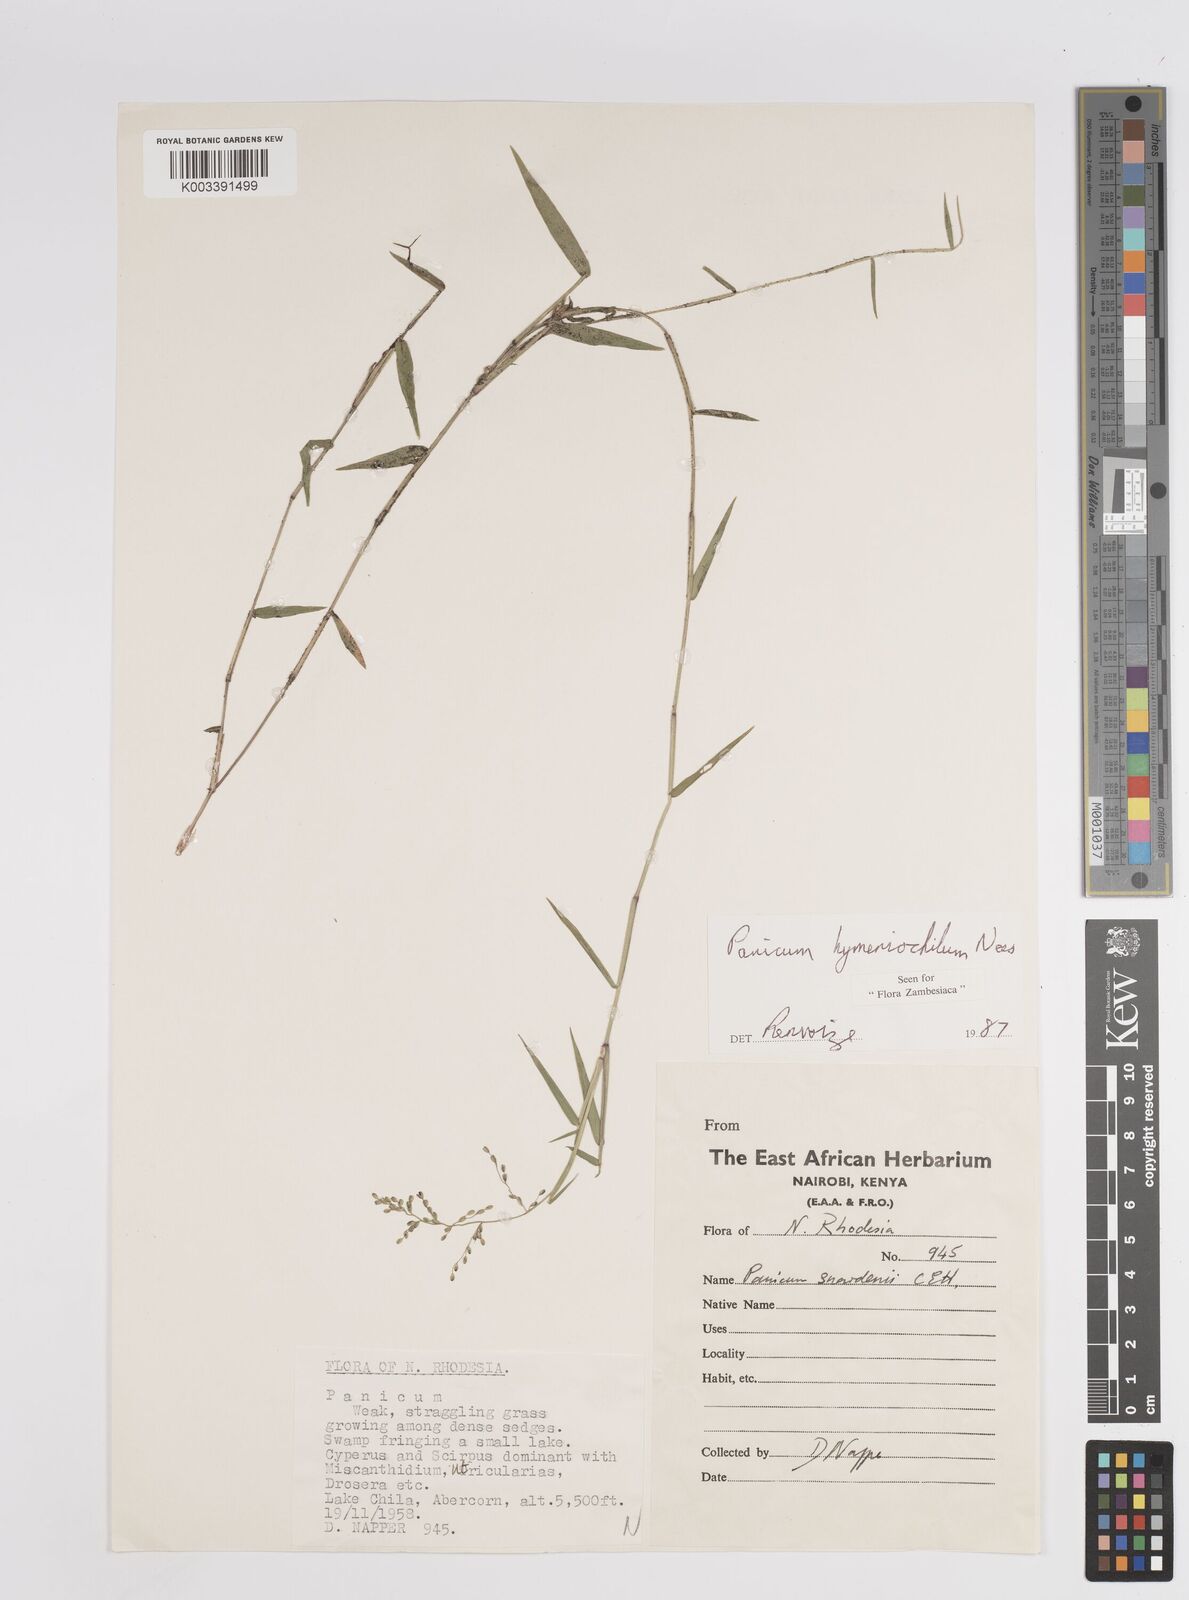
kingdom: Plantae
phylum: Tracheophyta
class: Liliopsida
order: Poales
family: Poaceae
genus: Adenochloa
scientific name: Adenochloa hymeniochila
